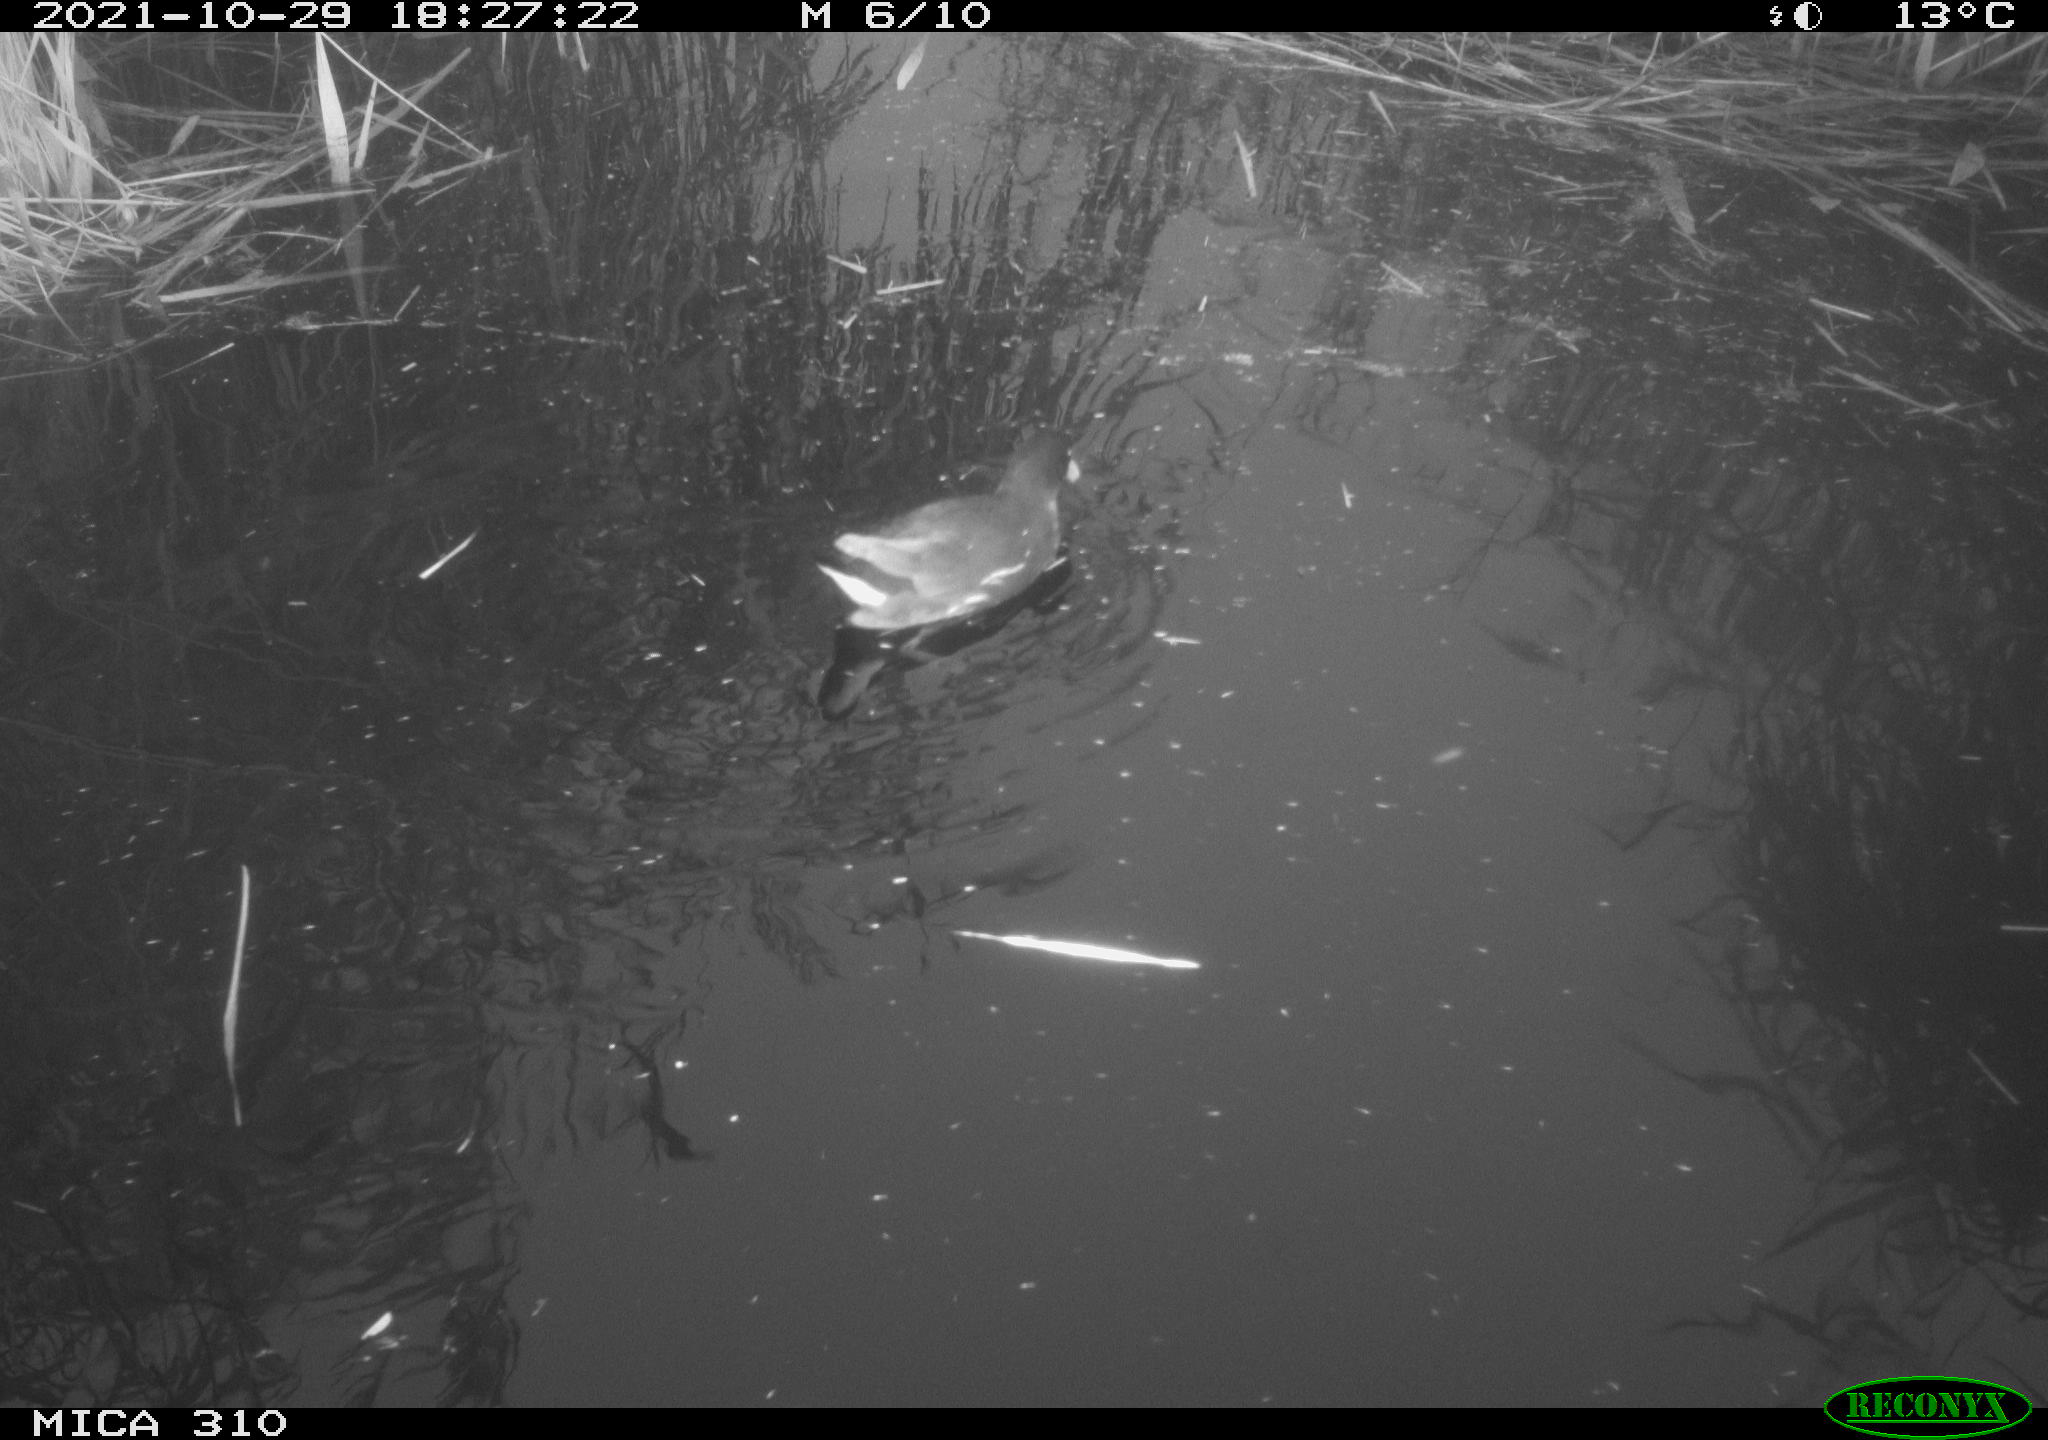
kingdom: Animalia
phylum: Chordata
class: Aves
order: Gruiformes
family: Rallidae
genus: Gallinula
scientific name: Gallinula chloropus
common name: Common moorhen
